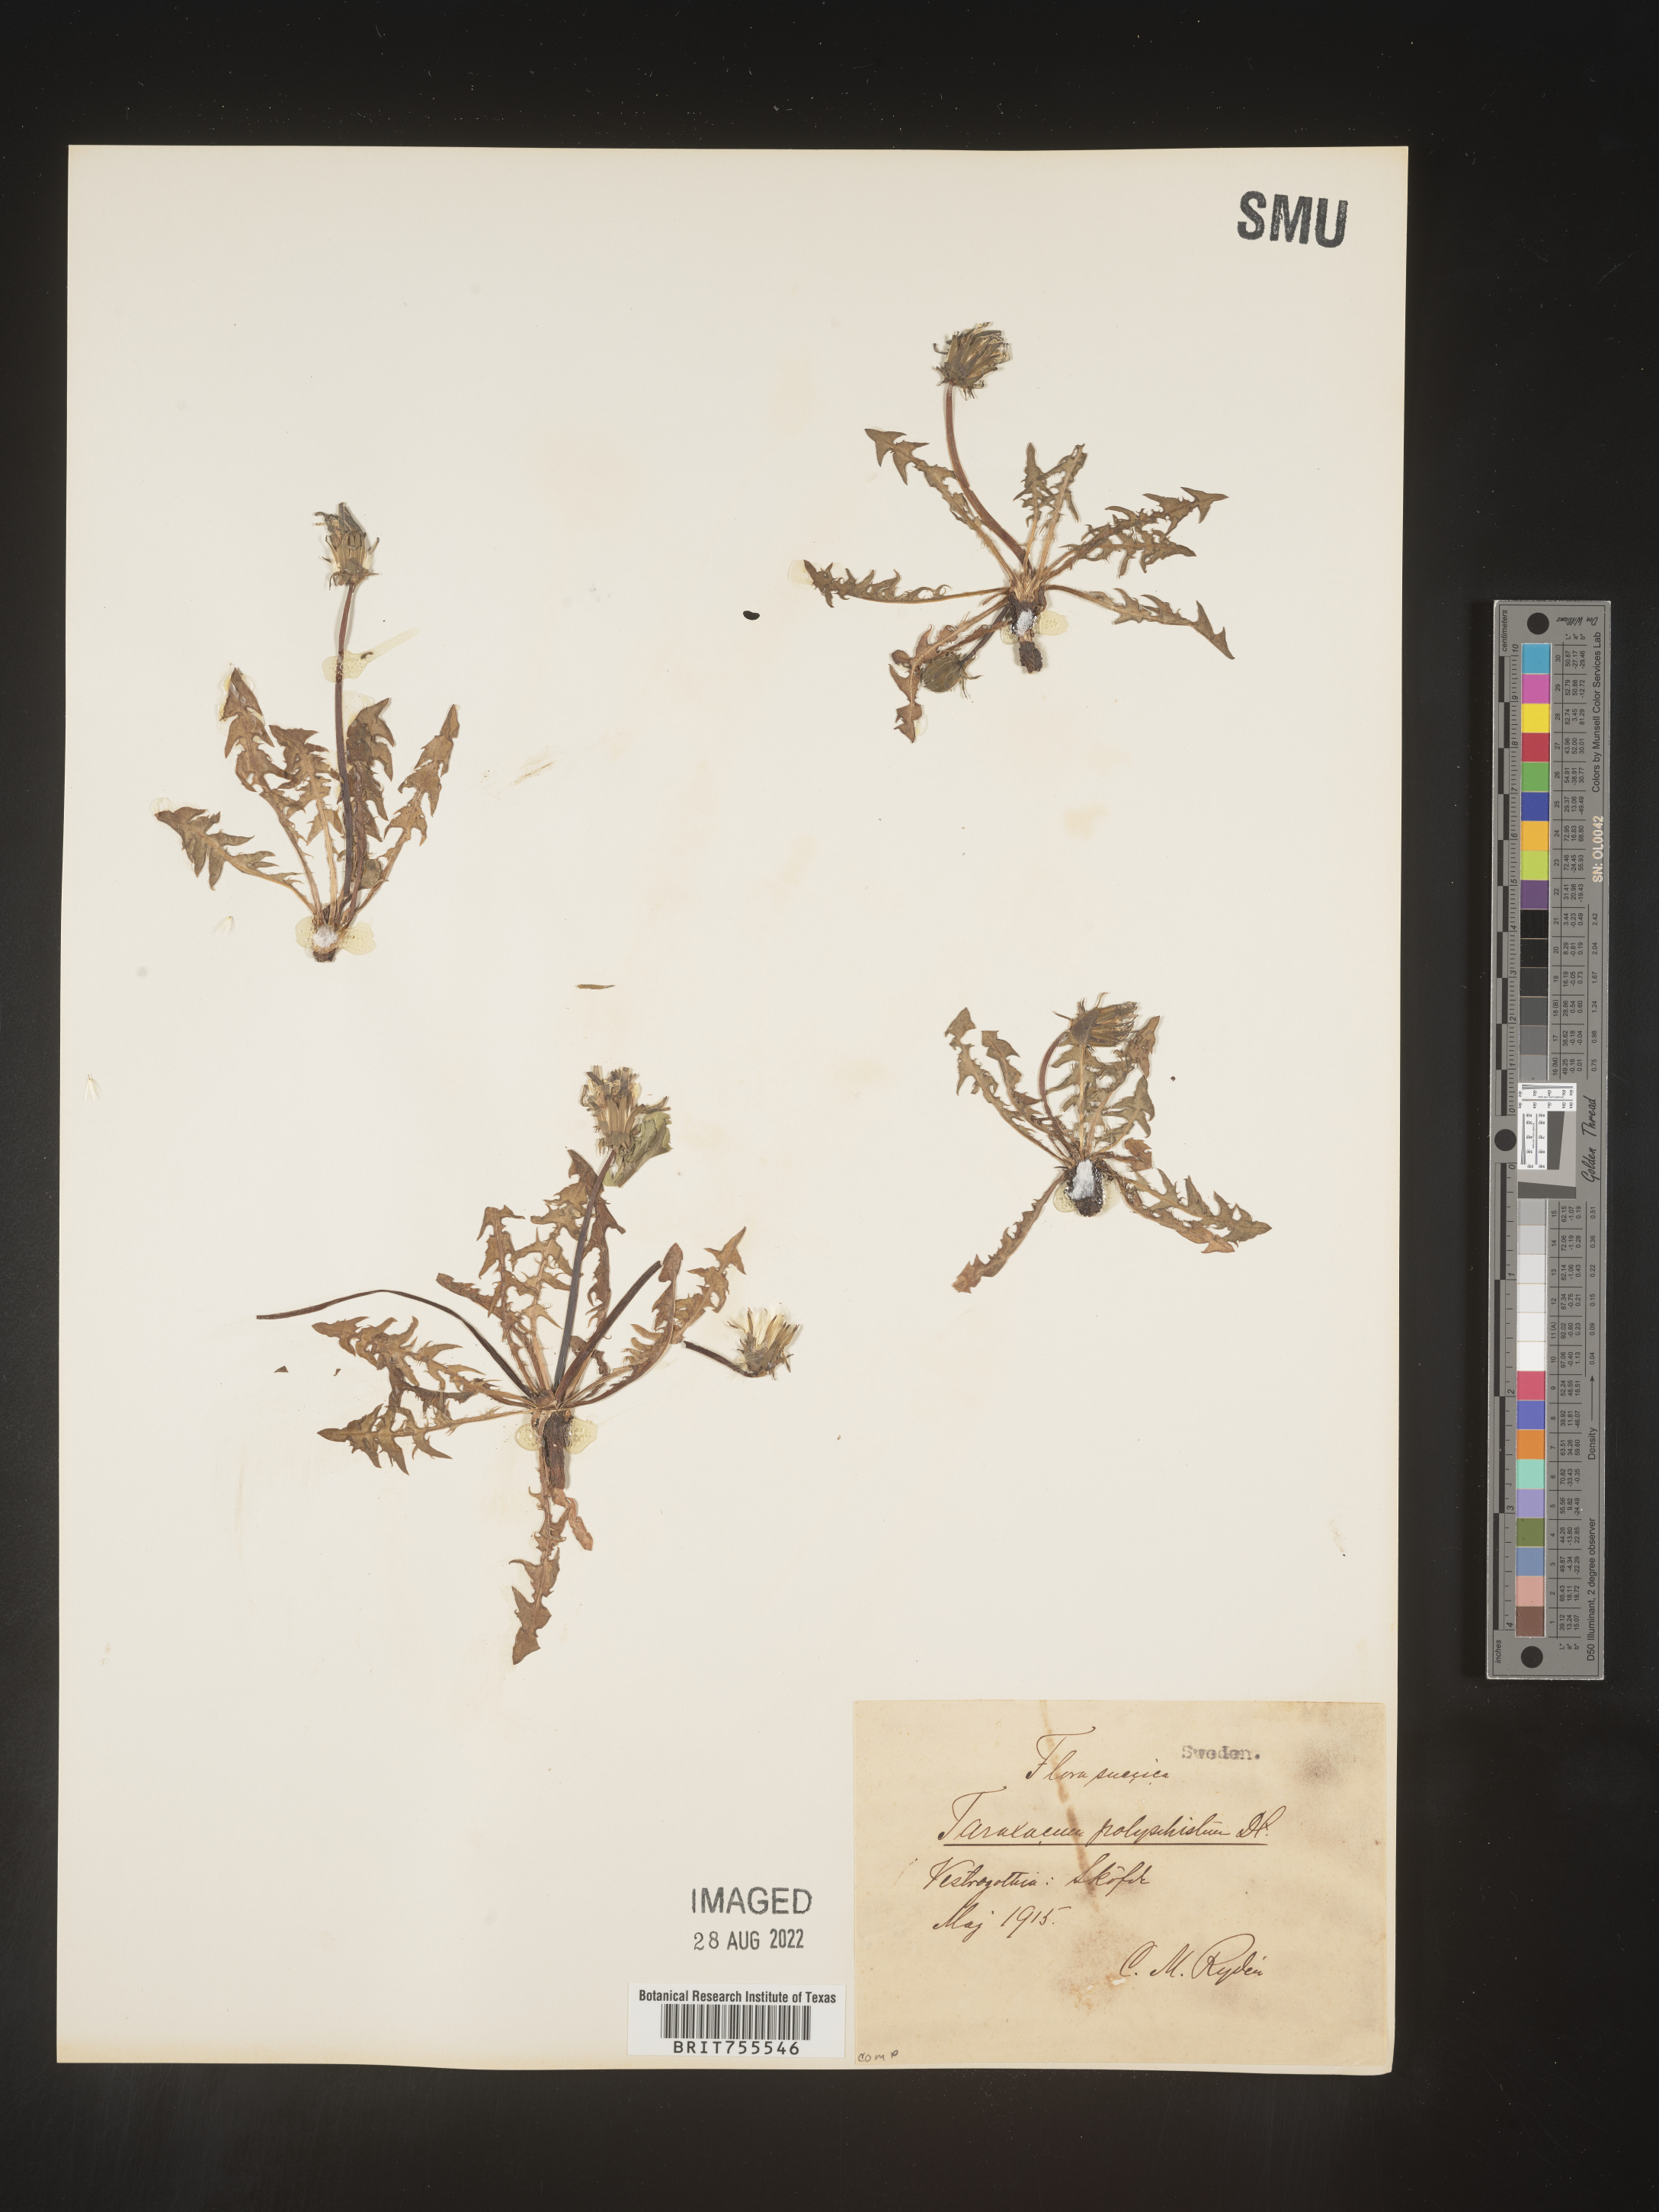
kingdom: Plantae
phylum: Tracheophyta
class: Magnoliopsida
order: Asterales
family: Asteraceae
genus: Taraxacum
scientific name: Taraxacum
